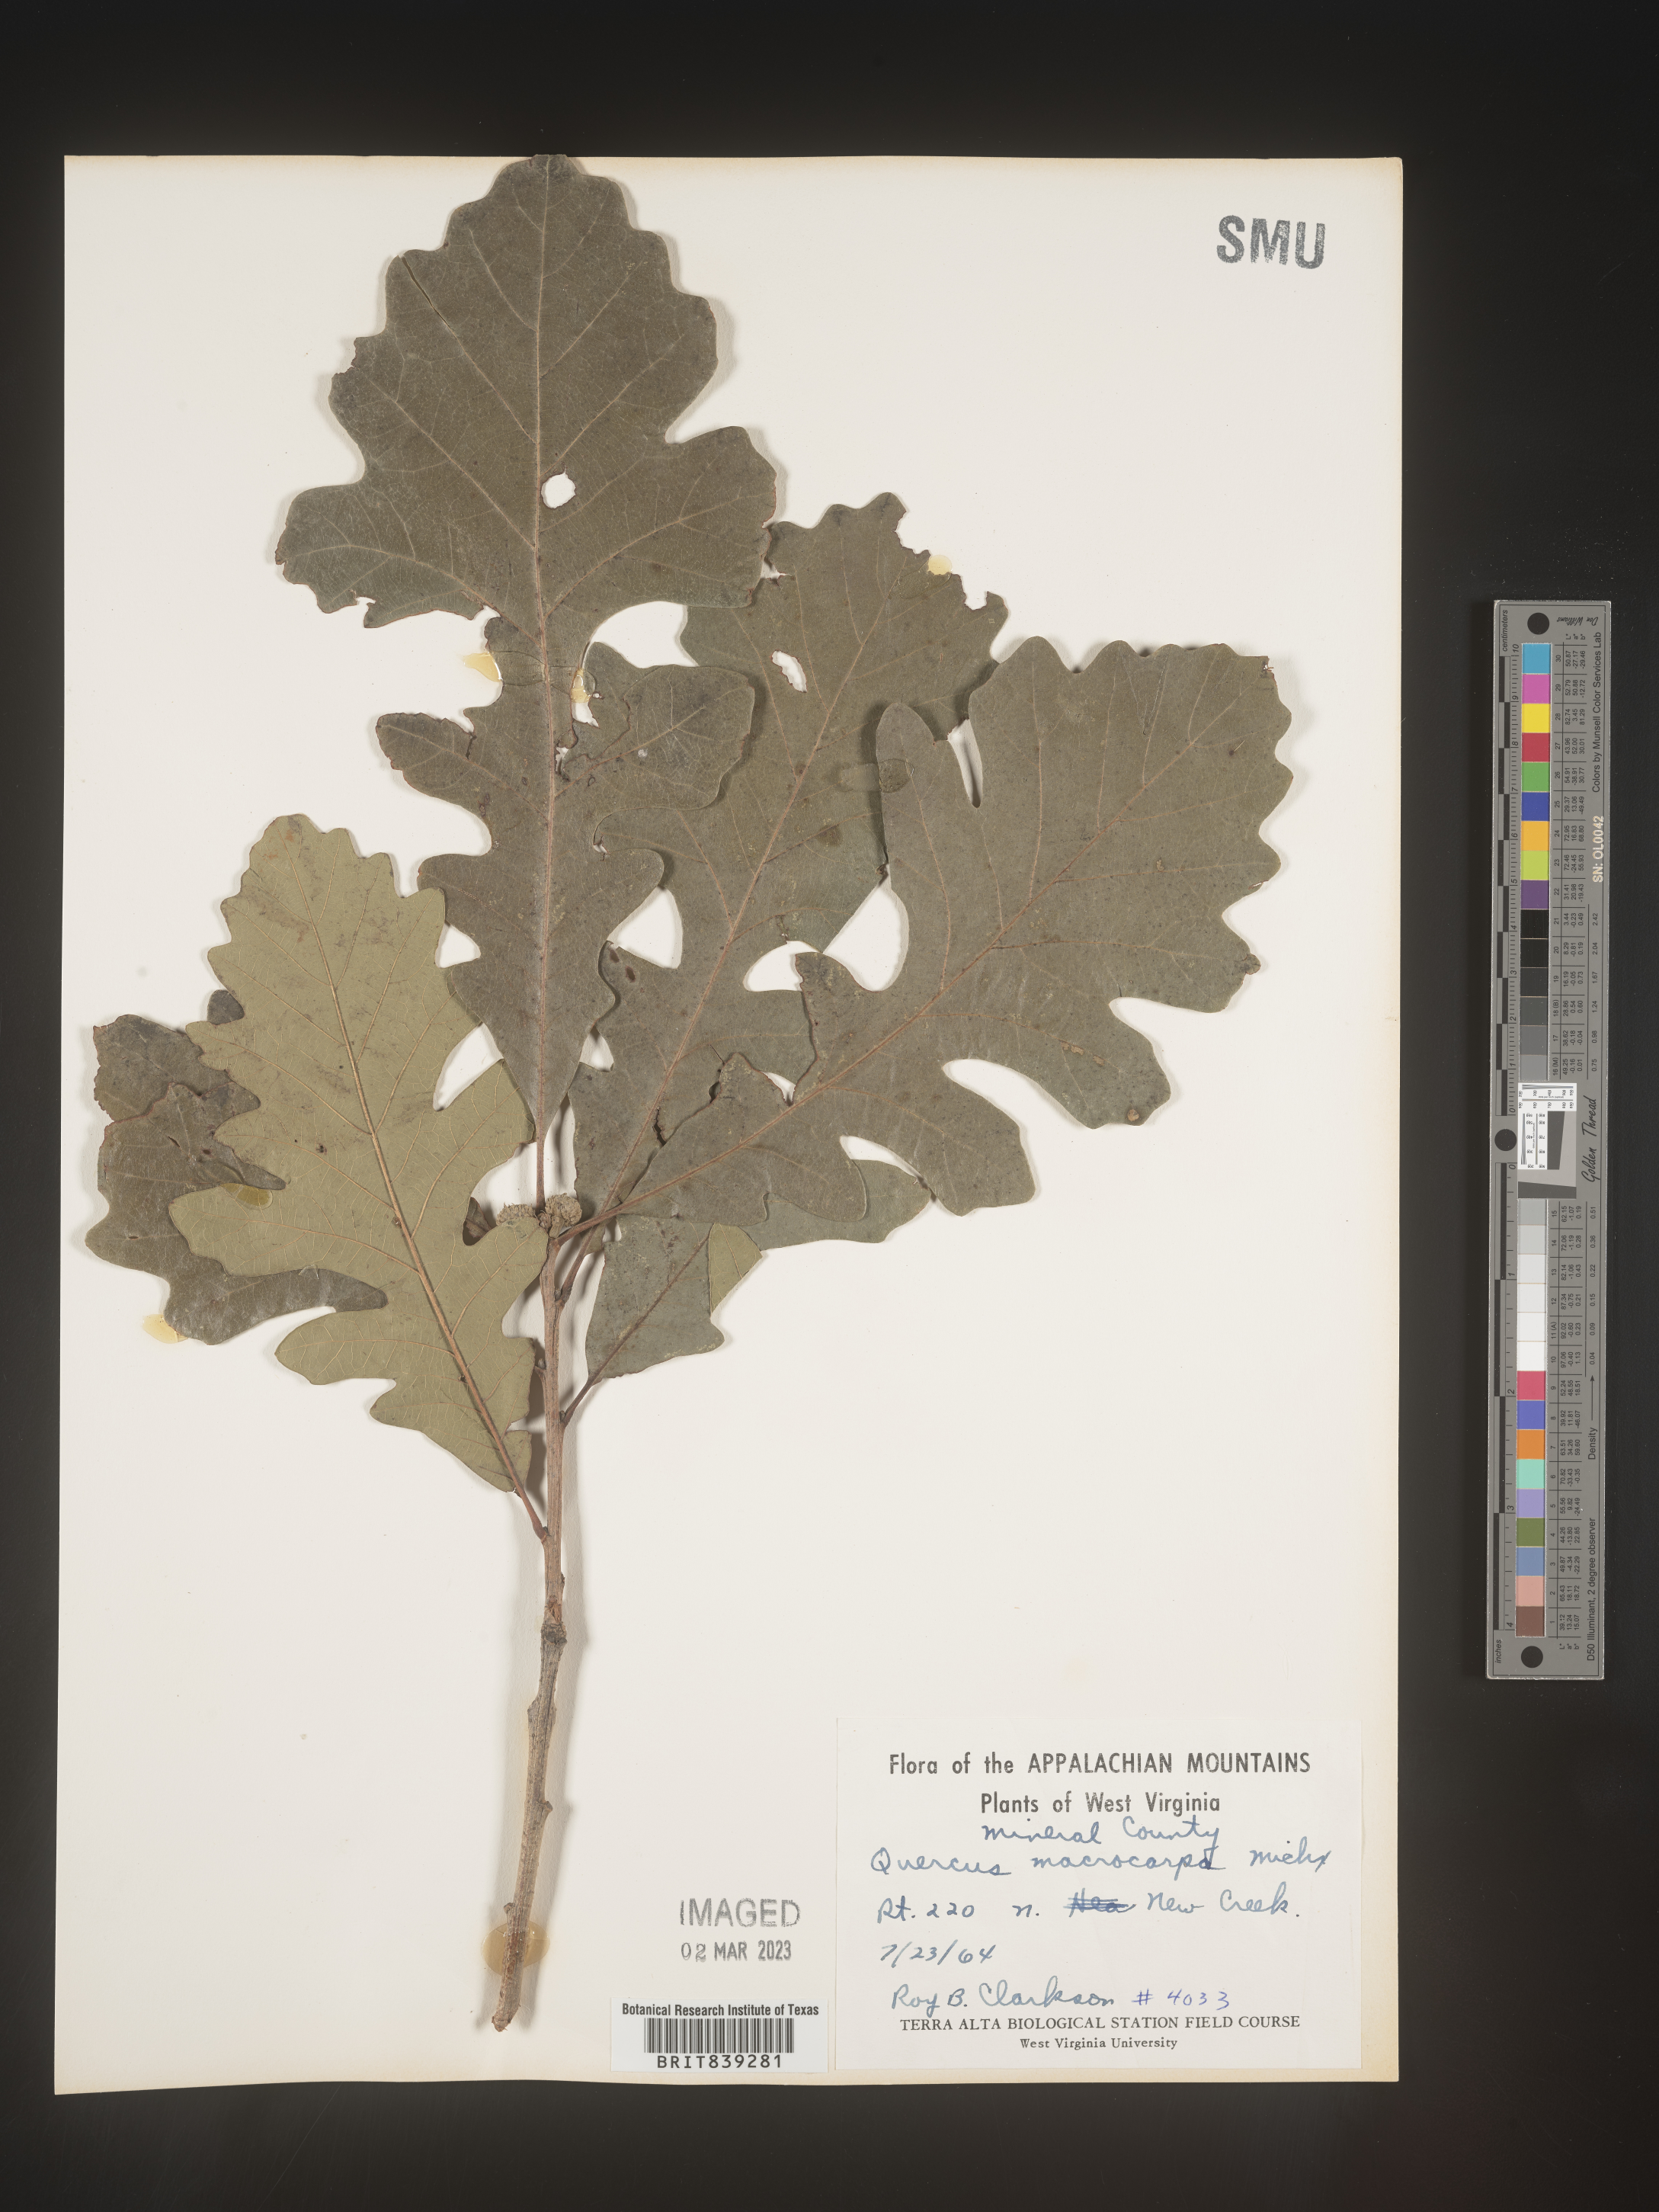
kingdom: Plantae
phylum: Tracheophyta
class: Magnoliopsida
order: Fagales
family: Fagaceae
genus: Quercus
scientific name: Quercus macrocarpa
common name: Bur oak
